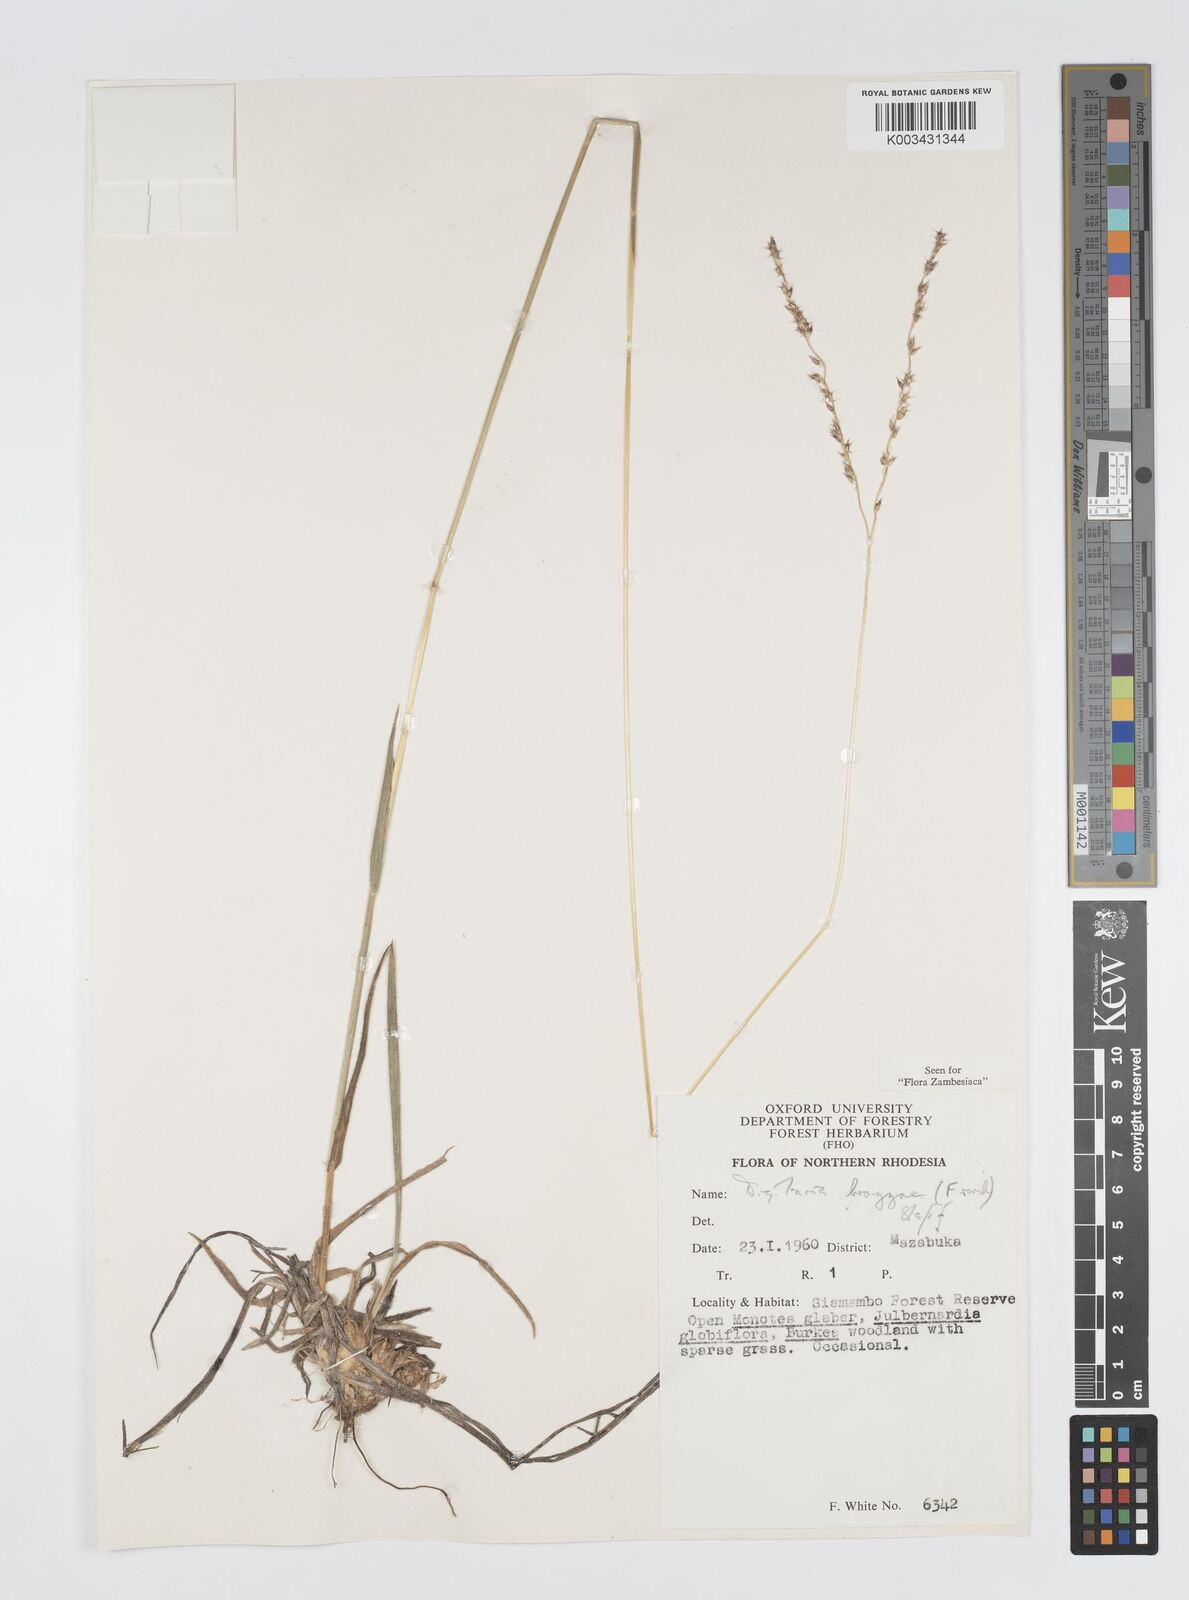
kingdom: Plantae
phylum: Tracheophyta
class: Liliopsida
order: Poales
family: Poaceae
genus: Digitaria
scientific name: Digitaria brazzae
